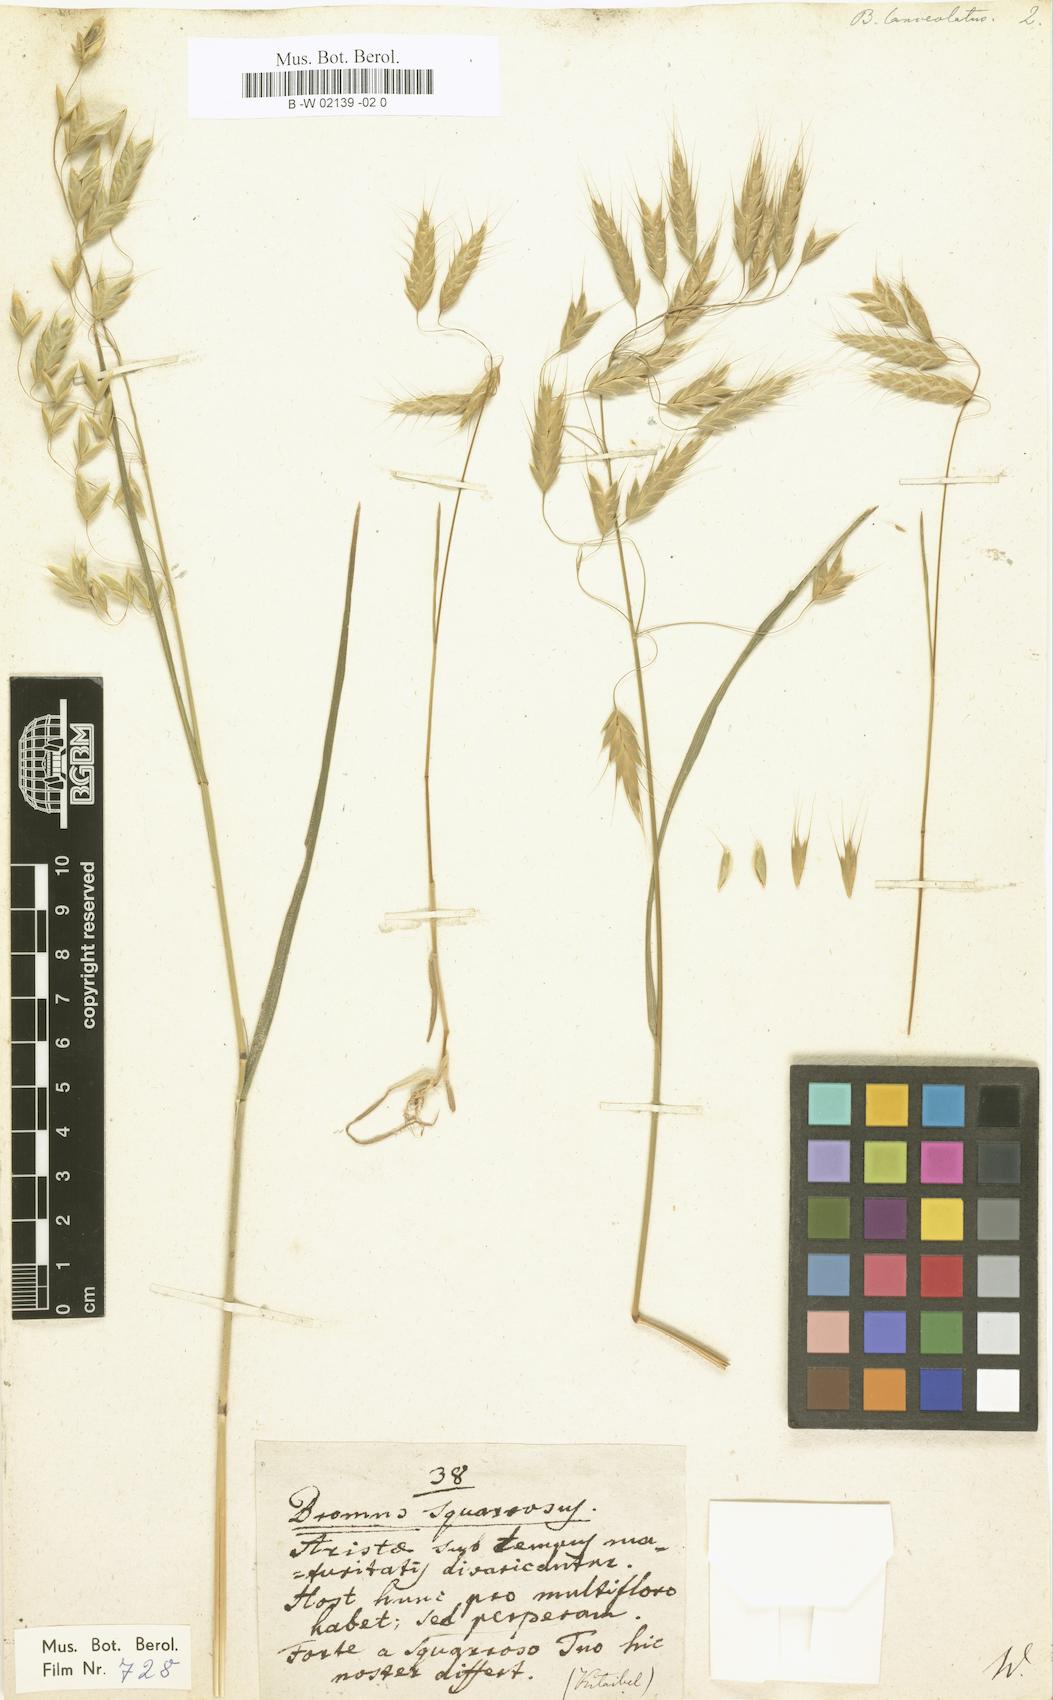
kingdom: Plantae
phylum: Tracheophyta
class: Liliopsida
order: Poales
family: Poaceae
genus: Bromus
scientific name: Bromus lanceolatus
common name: Mediterranean brome
